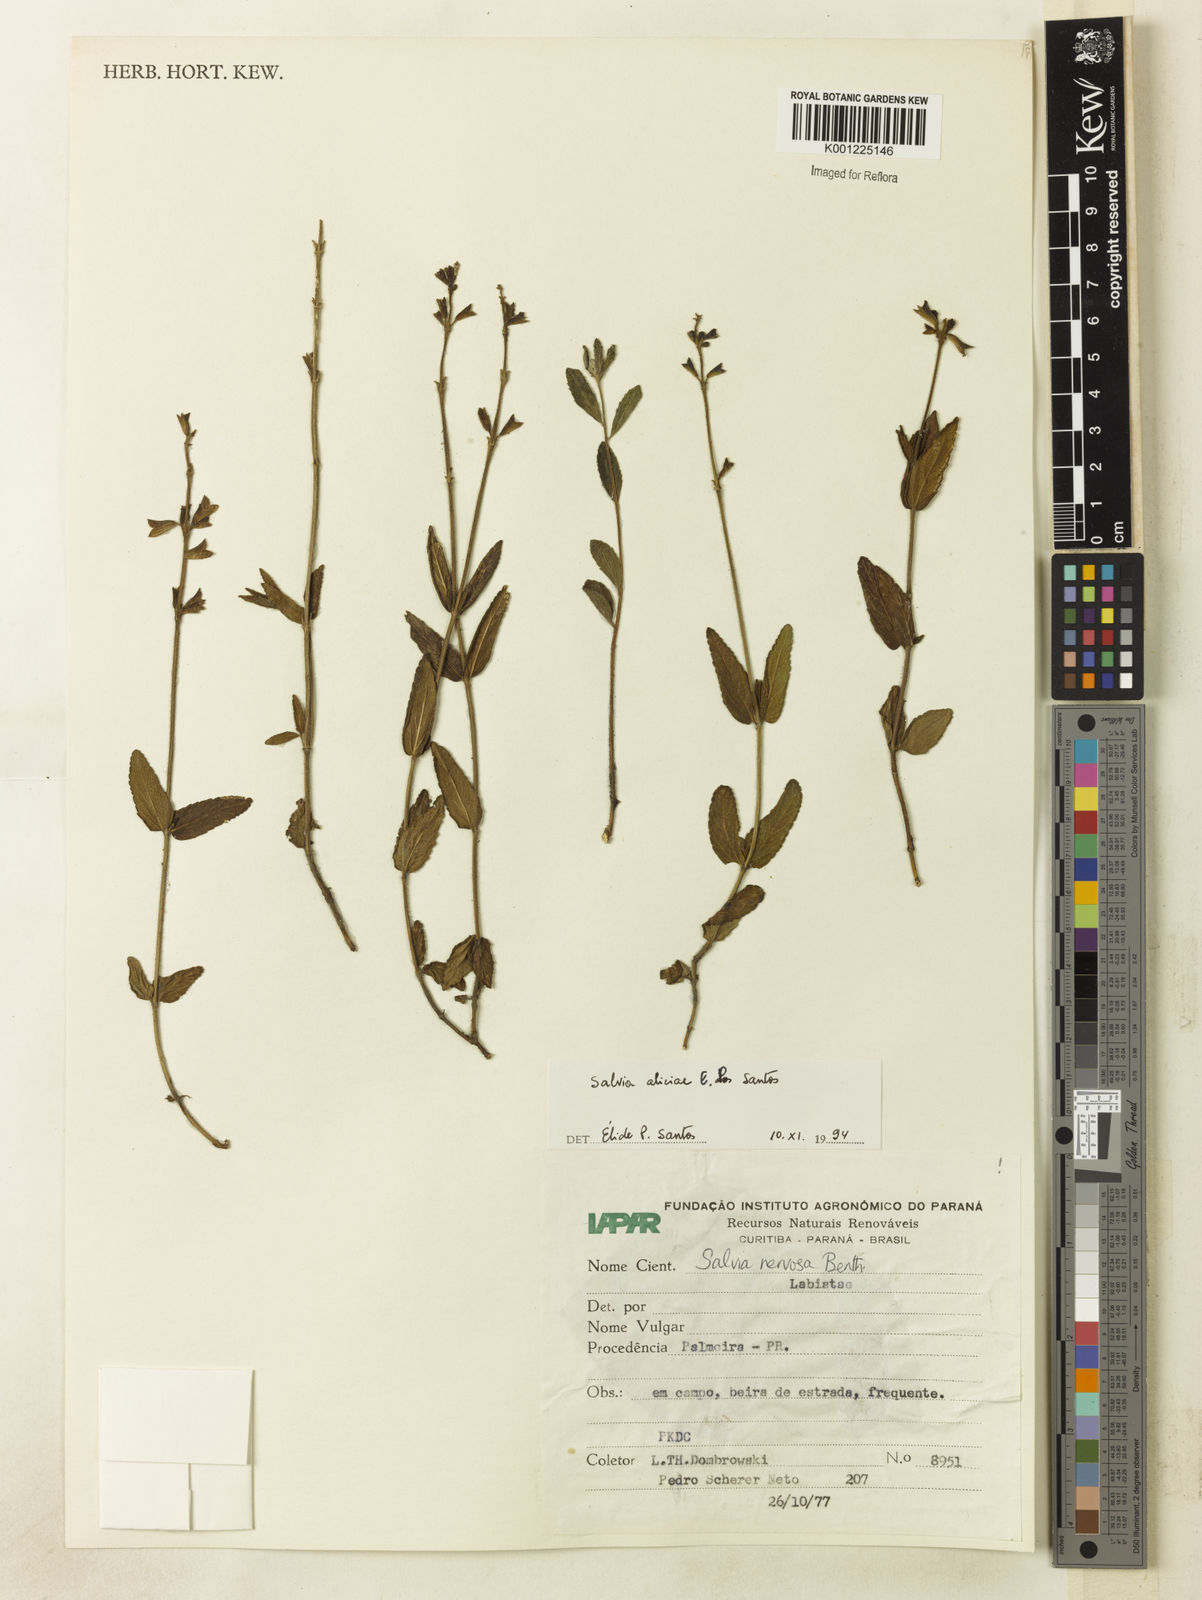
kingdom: Plantae
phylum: Tracheophyta
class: Magnoliopsida
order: Lamiales
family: Lamiaceae
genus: Salvia
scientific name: Salvia aliciae
